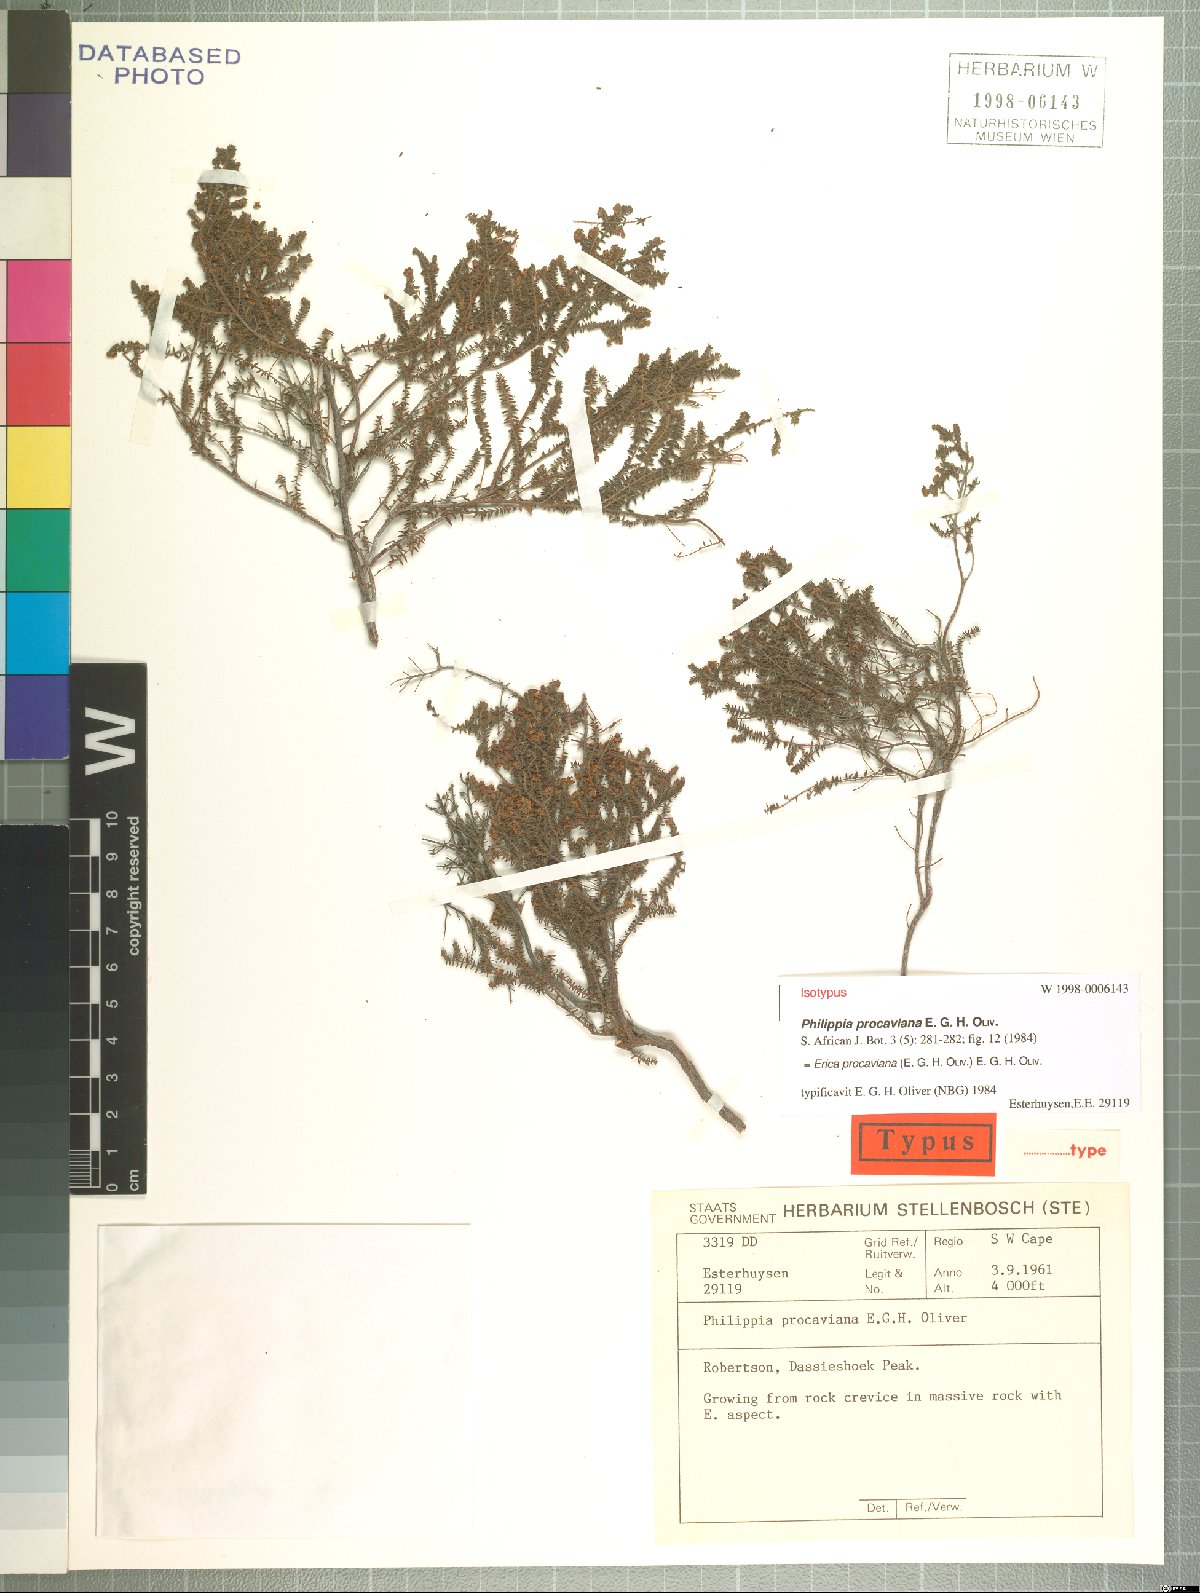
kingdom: Plantae
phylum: Tracheophyta
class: Magnoliopsida
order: Ericales
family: Ericaceae
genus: Erica
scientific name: Erica procaviana
